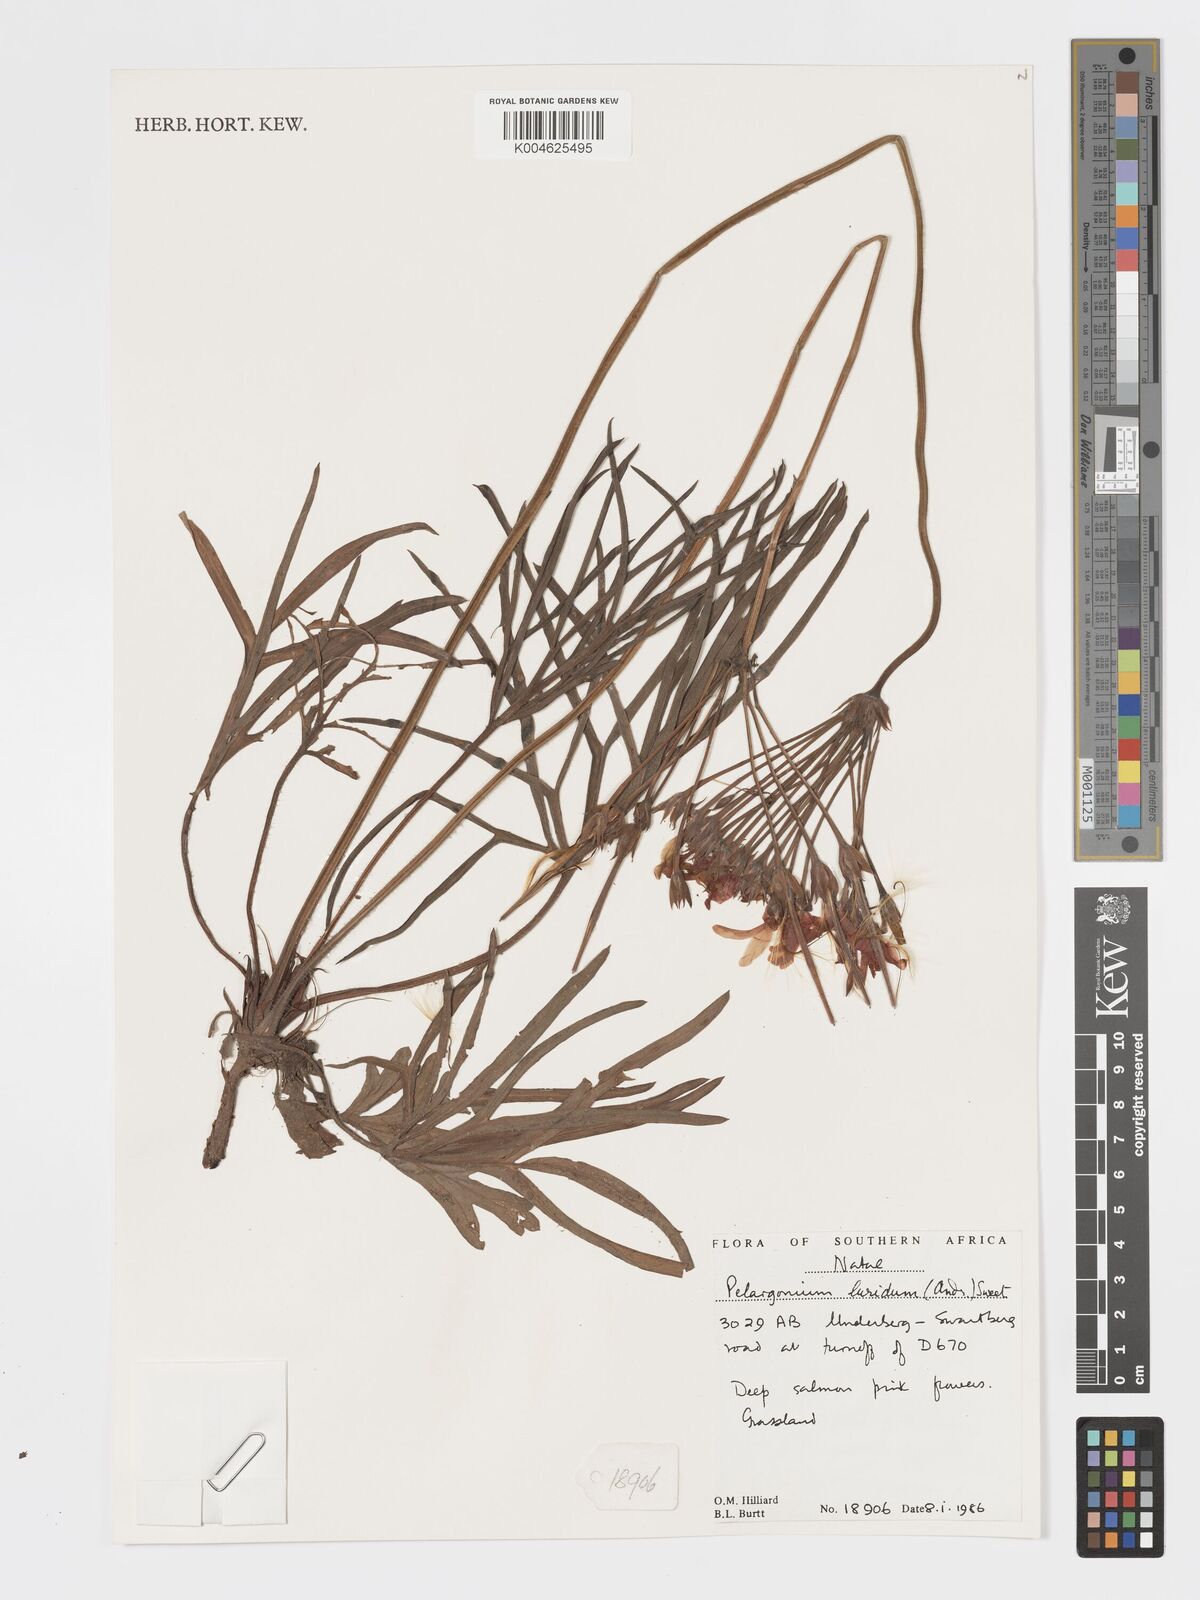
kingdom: Plantae
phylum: Tracheophyta
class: Magnoliopsida
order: Geraniales
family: Geraniaceae
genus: Pelargonium
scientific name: Pelargonium luridum
